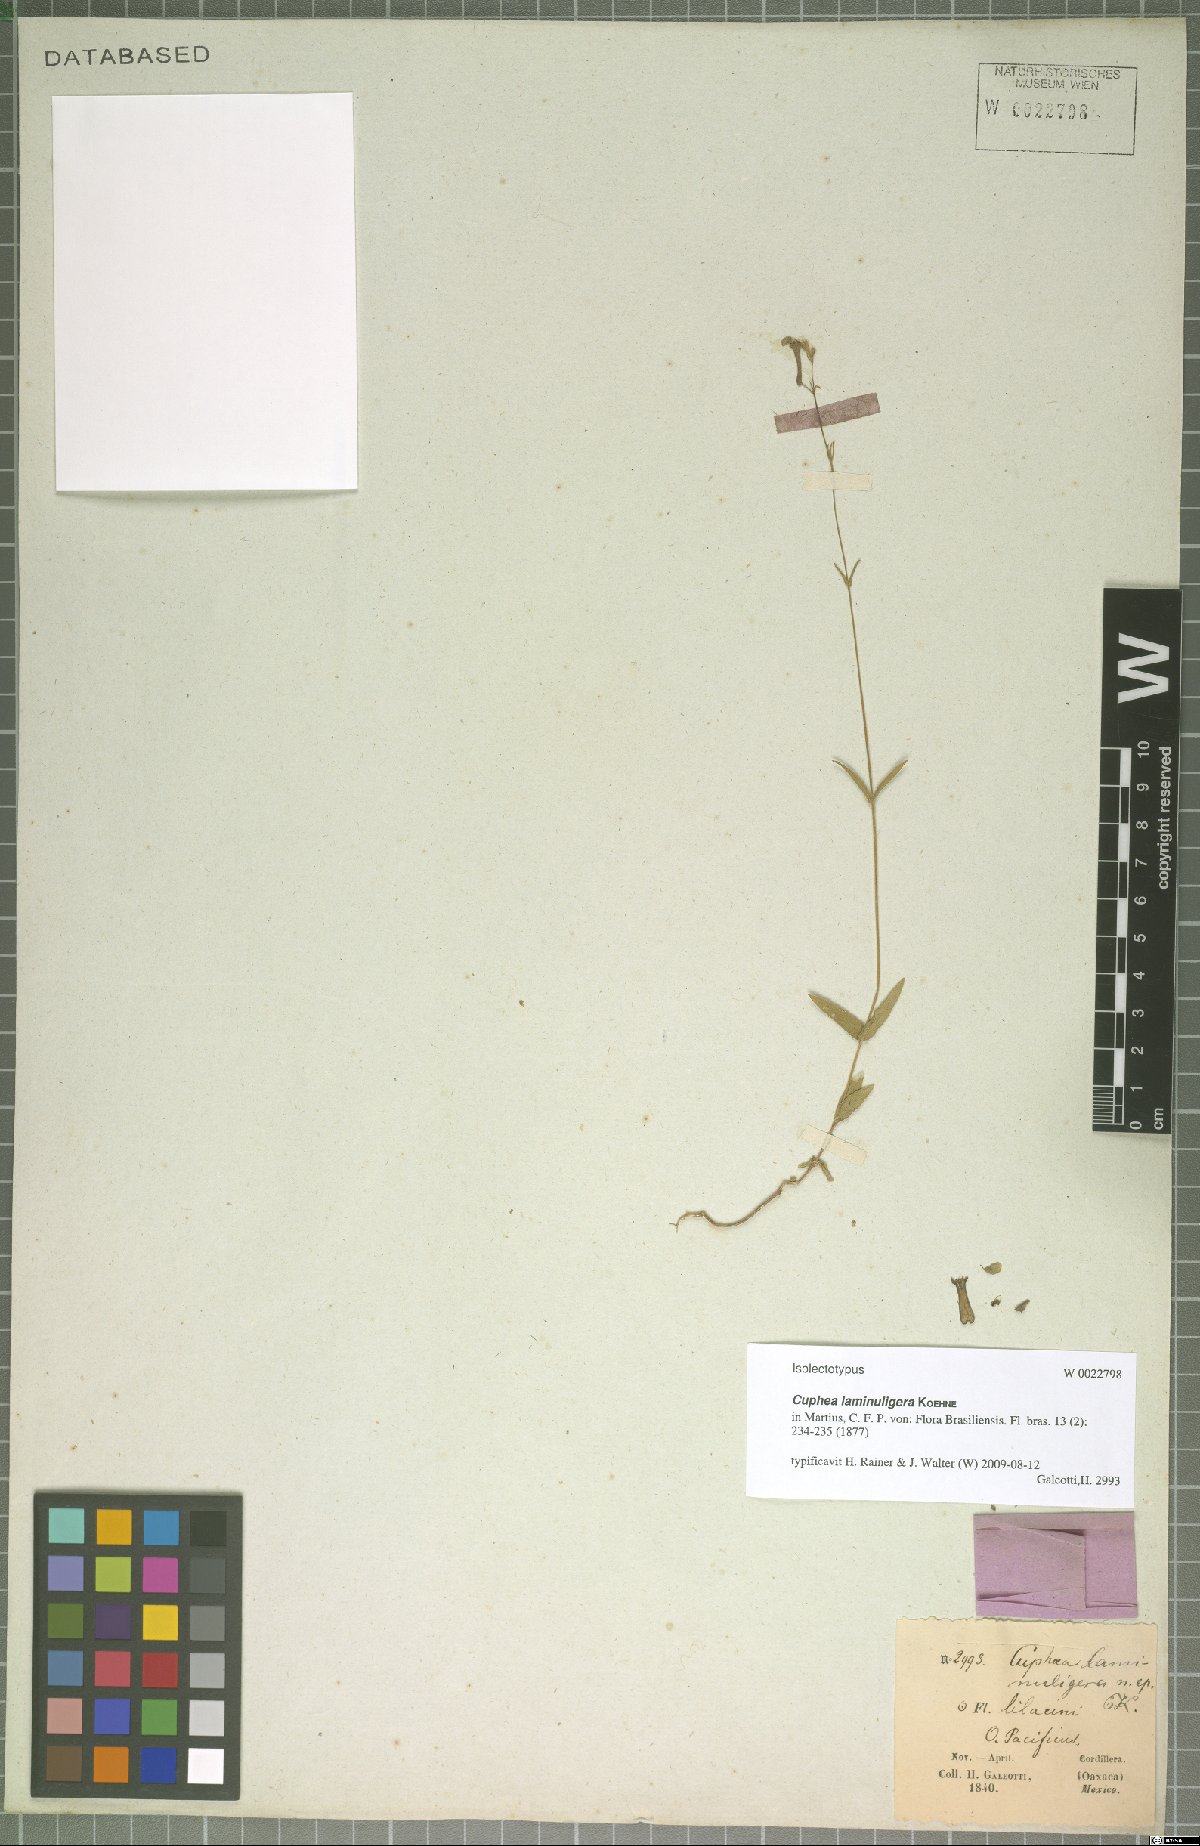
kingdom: Plantae
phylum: Tracheophyta
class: Magnoliopsida
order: Myrtales
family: Lythraceae
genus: Cuphea
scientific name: Cuphea laminuligera
